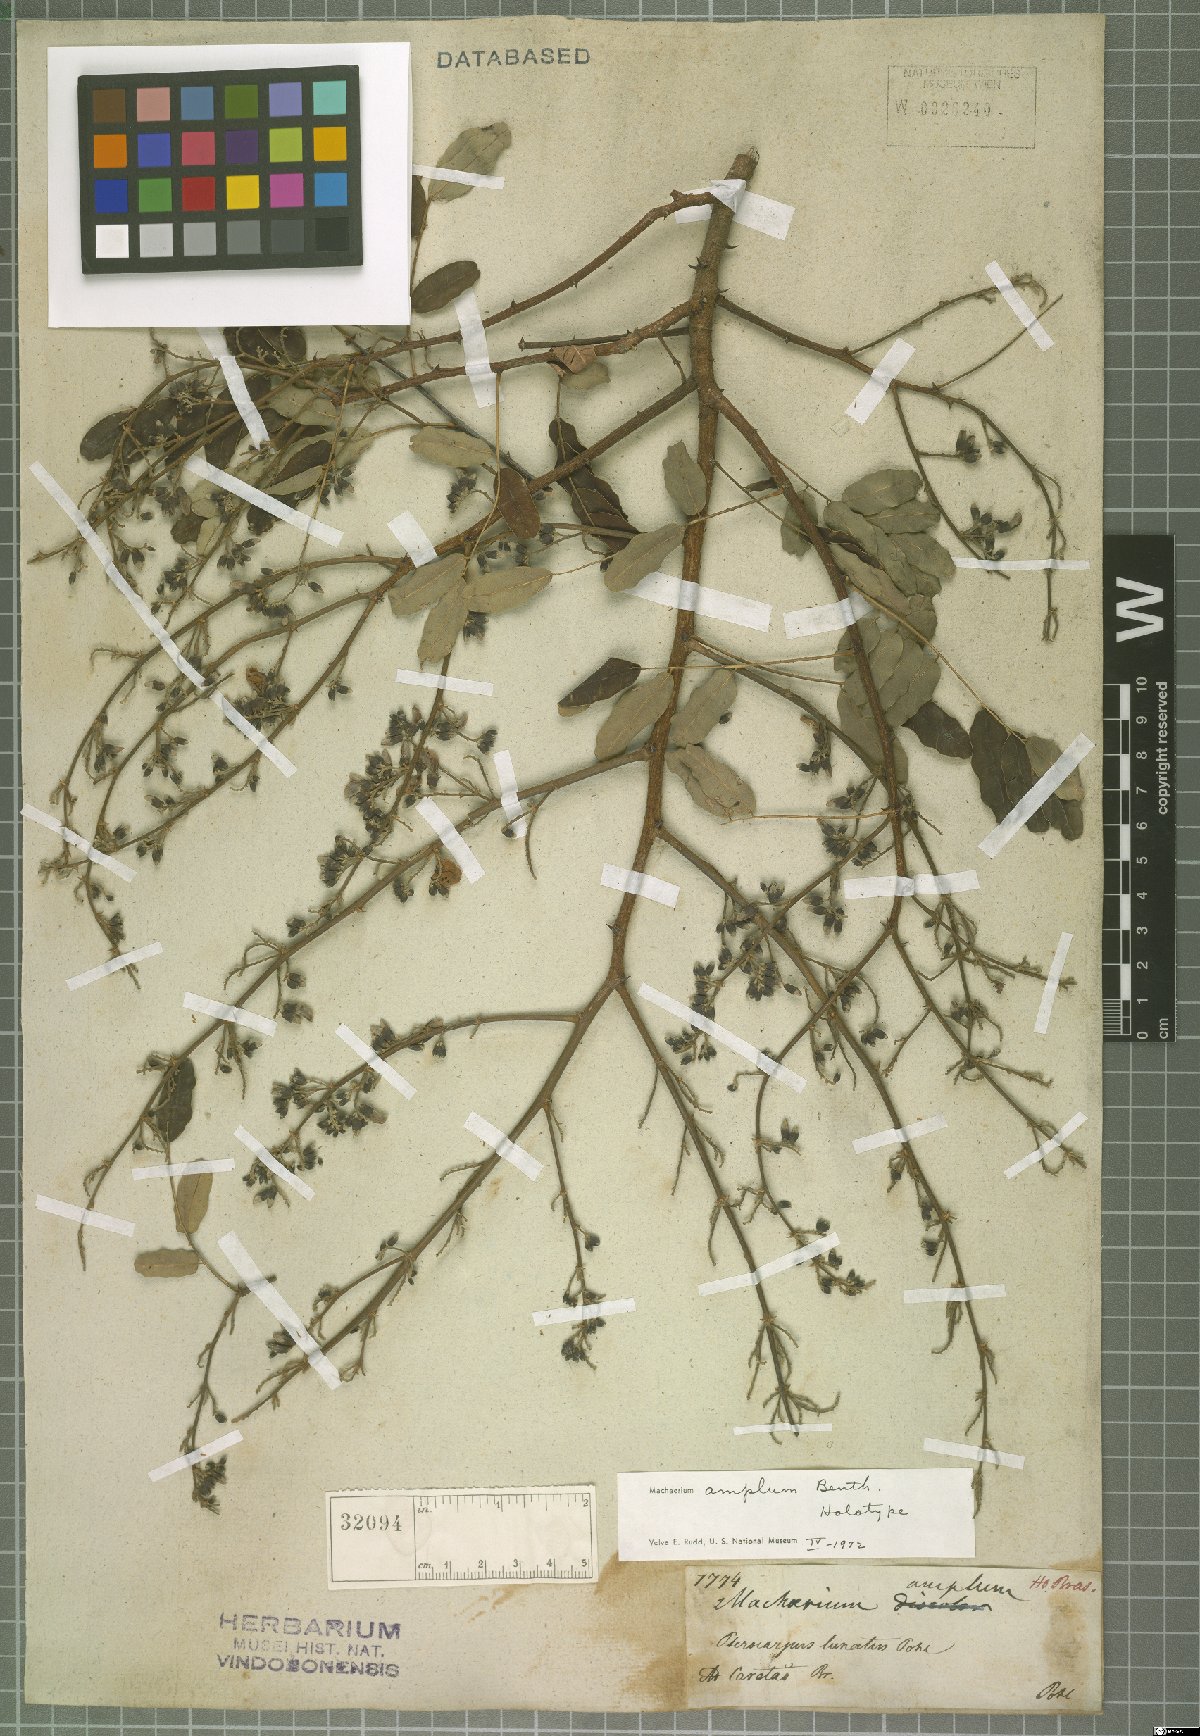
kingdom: Plantae
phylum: Tracheophyta
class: Magnoliopsida
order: Fabales
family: Fabaceae
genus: Machaerium
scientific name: Machaerium amplum
